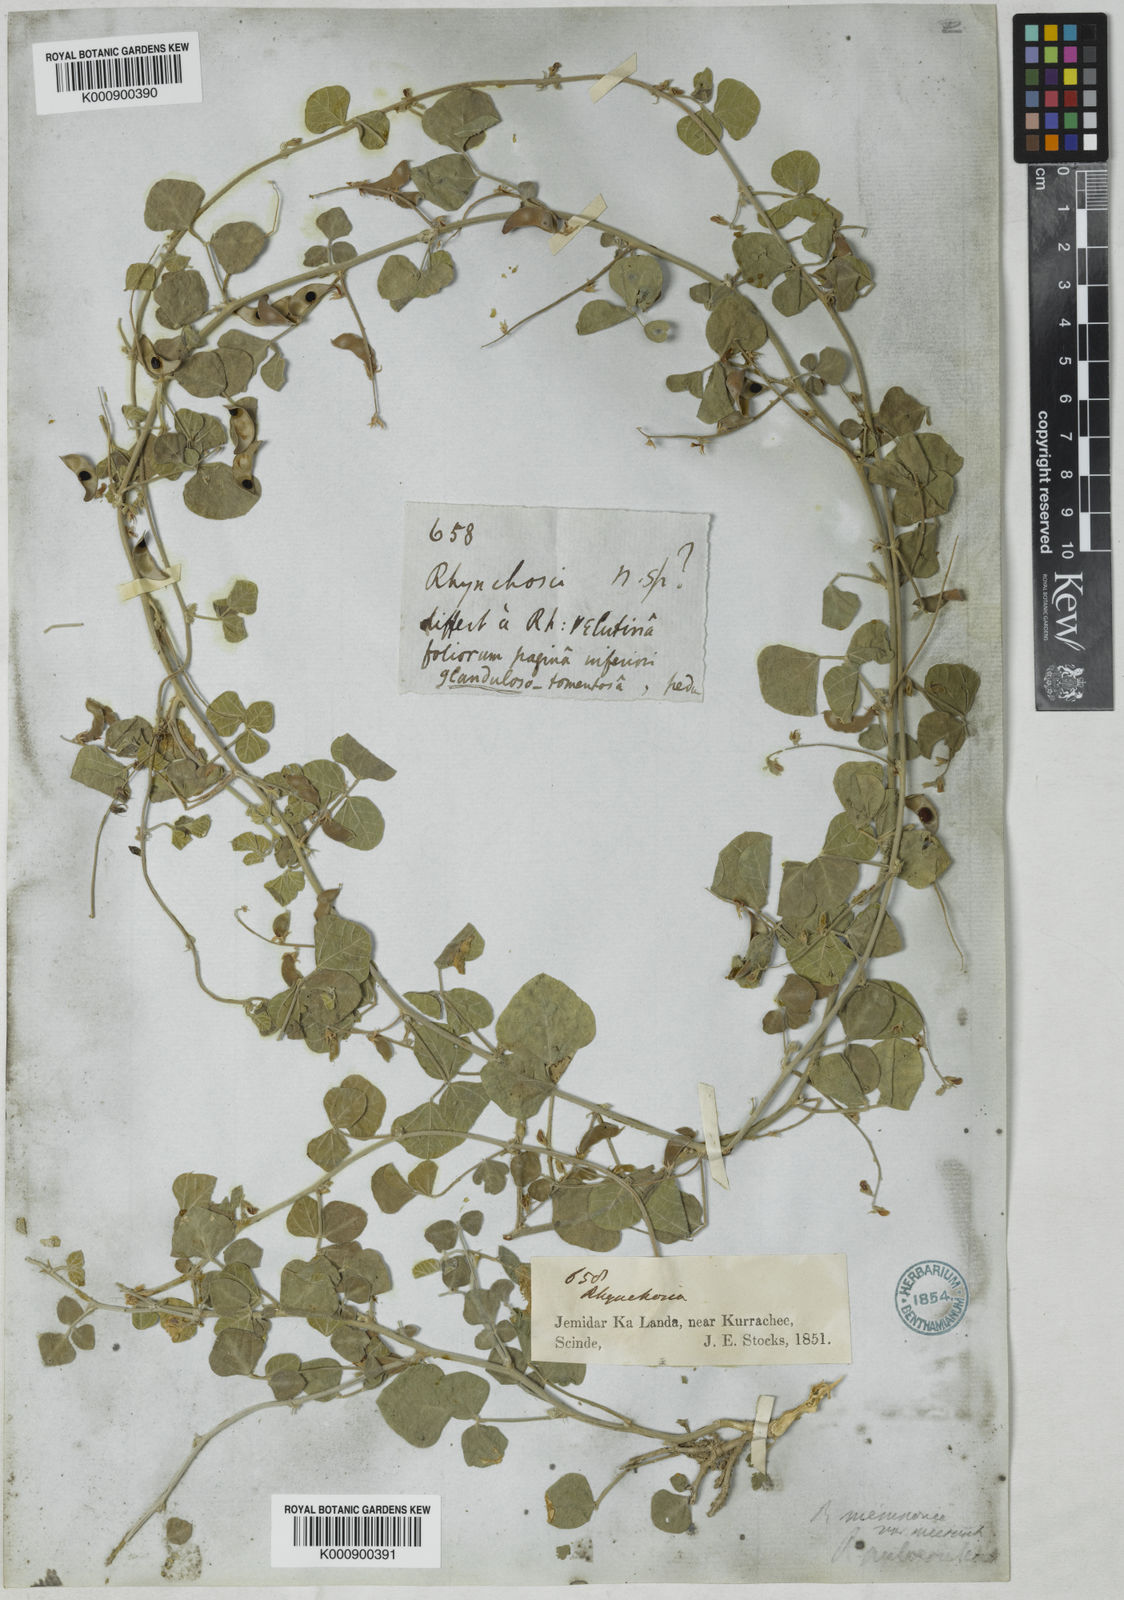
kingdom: Plantae
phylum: Tracheophyta
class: Magnoliopsida
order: Fabales
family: Fabaceae
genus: Rhynchosia
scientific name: Rhynchosia minima
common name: Least snoutbean
